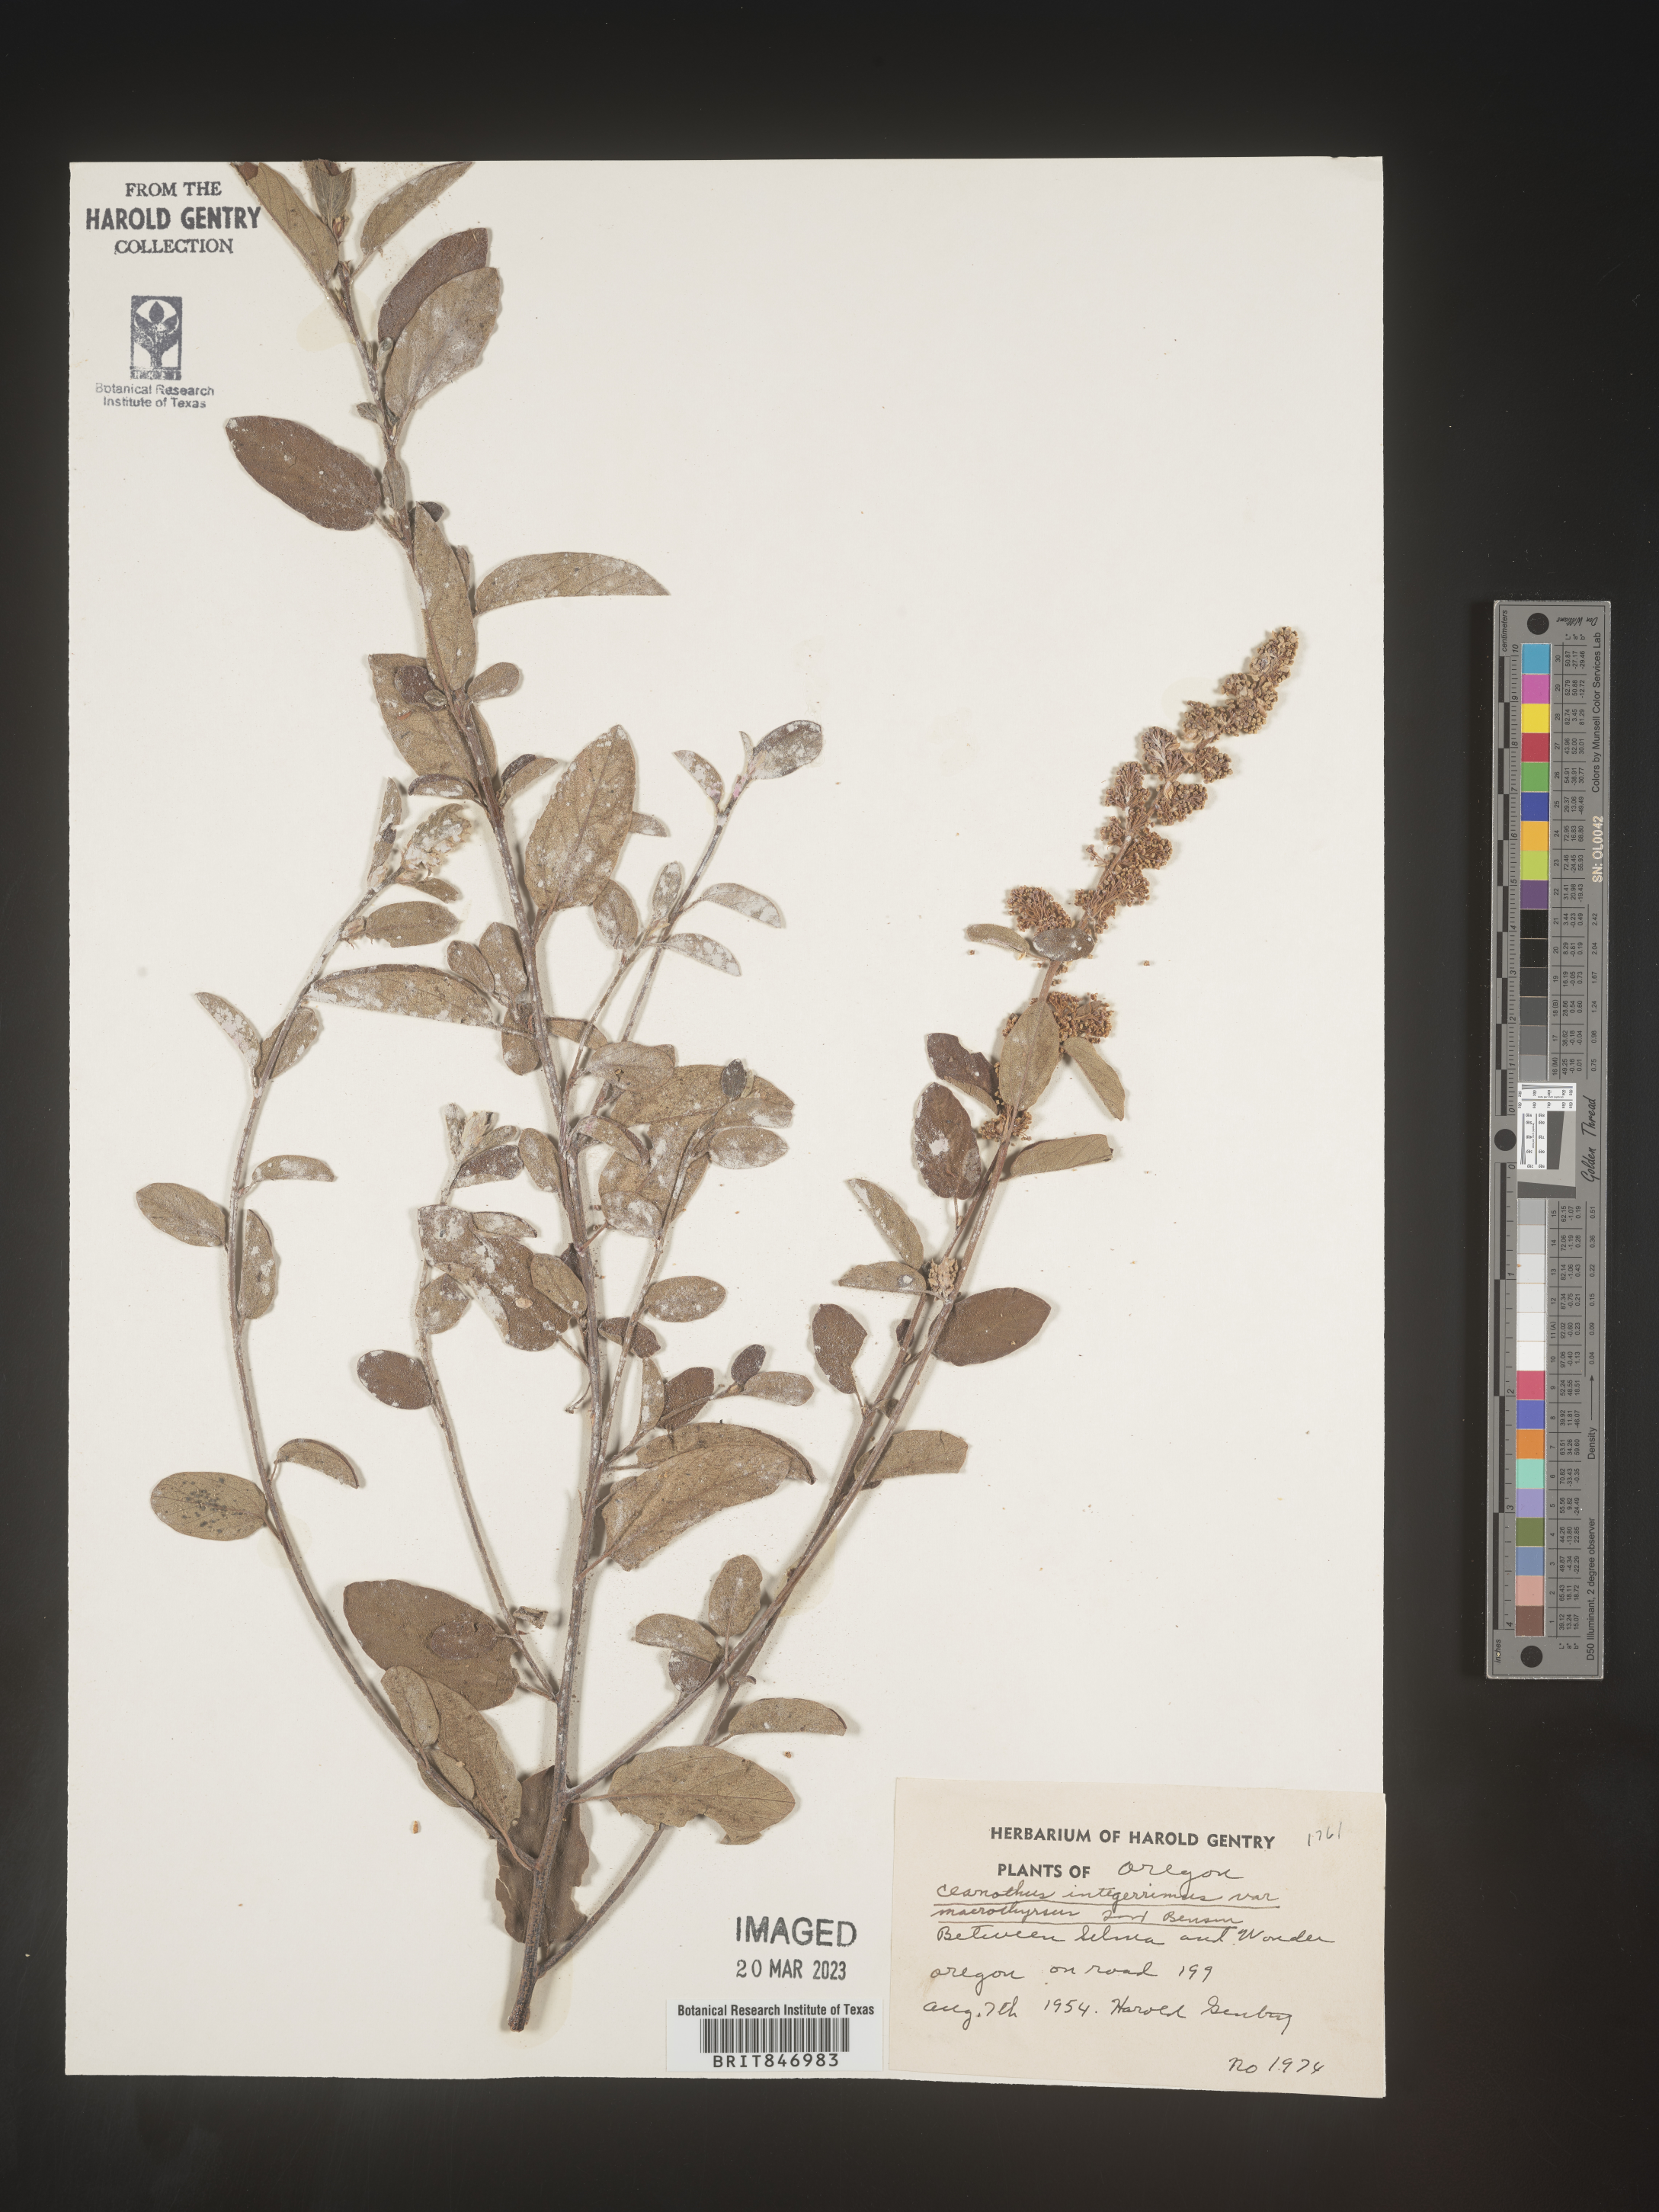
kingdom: Plantae
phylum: Tracheophyta
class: Magnoliopsida
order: Rosales
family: Rhamnaceae
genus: Ceanothus
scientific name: Ceanothus integerrimus
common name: Deerbrush ceanothus
